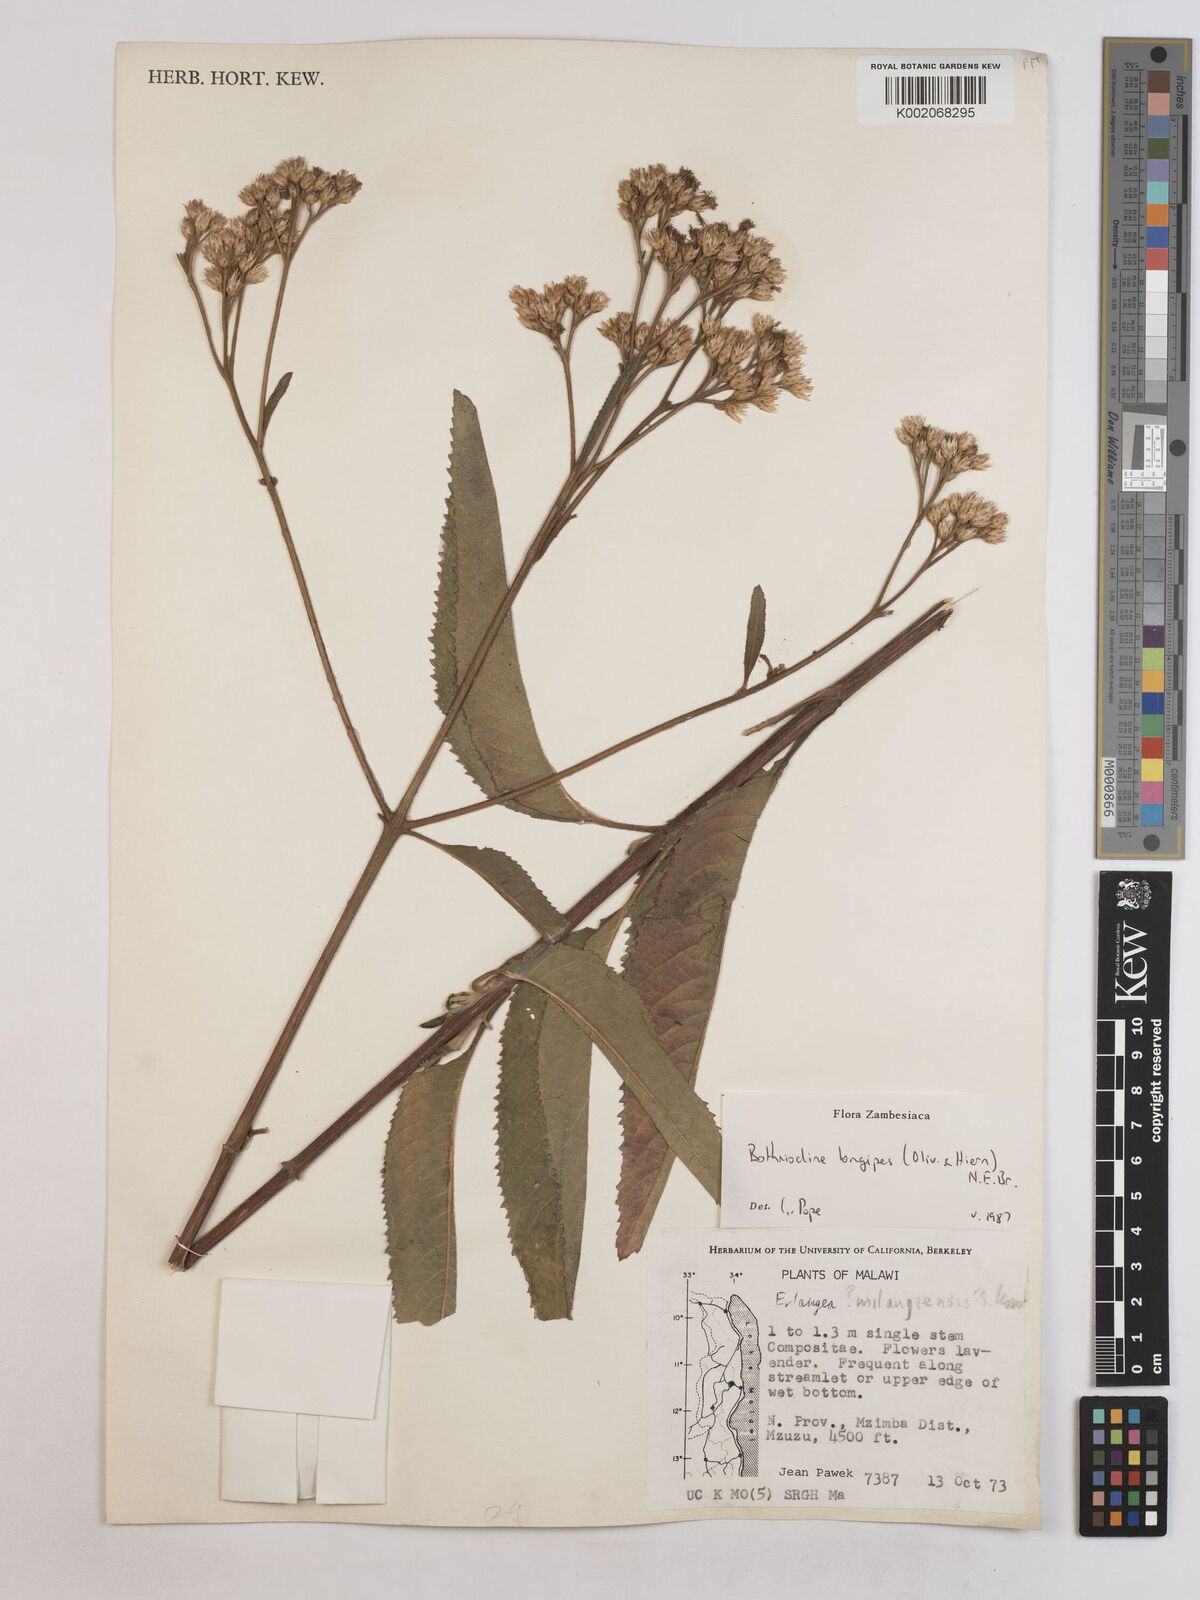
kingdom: Plantae
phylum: Tracheophyta
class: Magnoliopsida
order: Asterales
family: Asteraceae
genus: Bothriocline
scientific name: Bothriocline longipes
